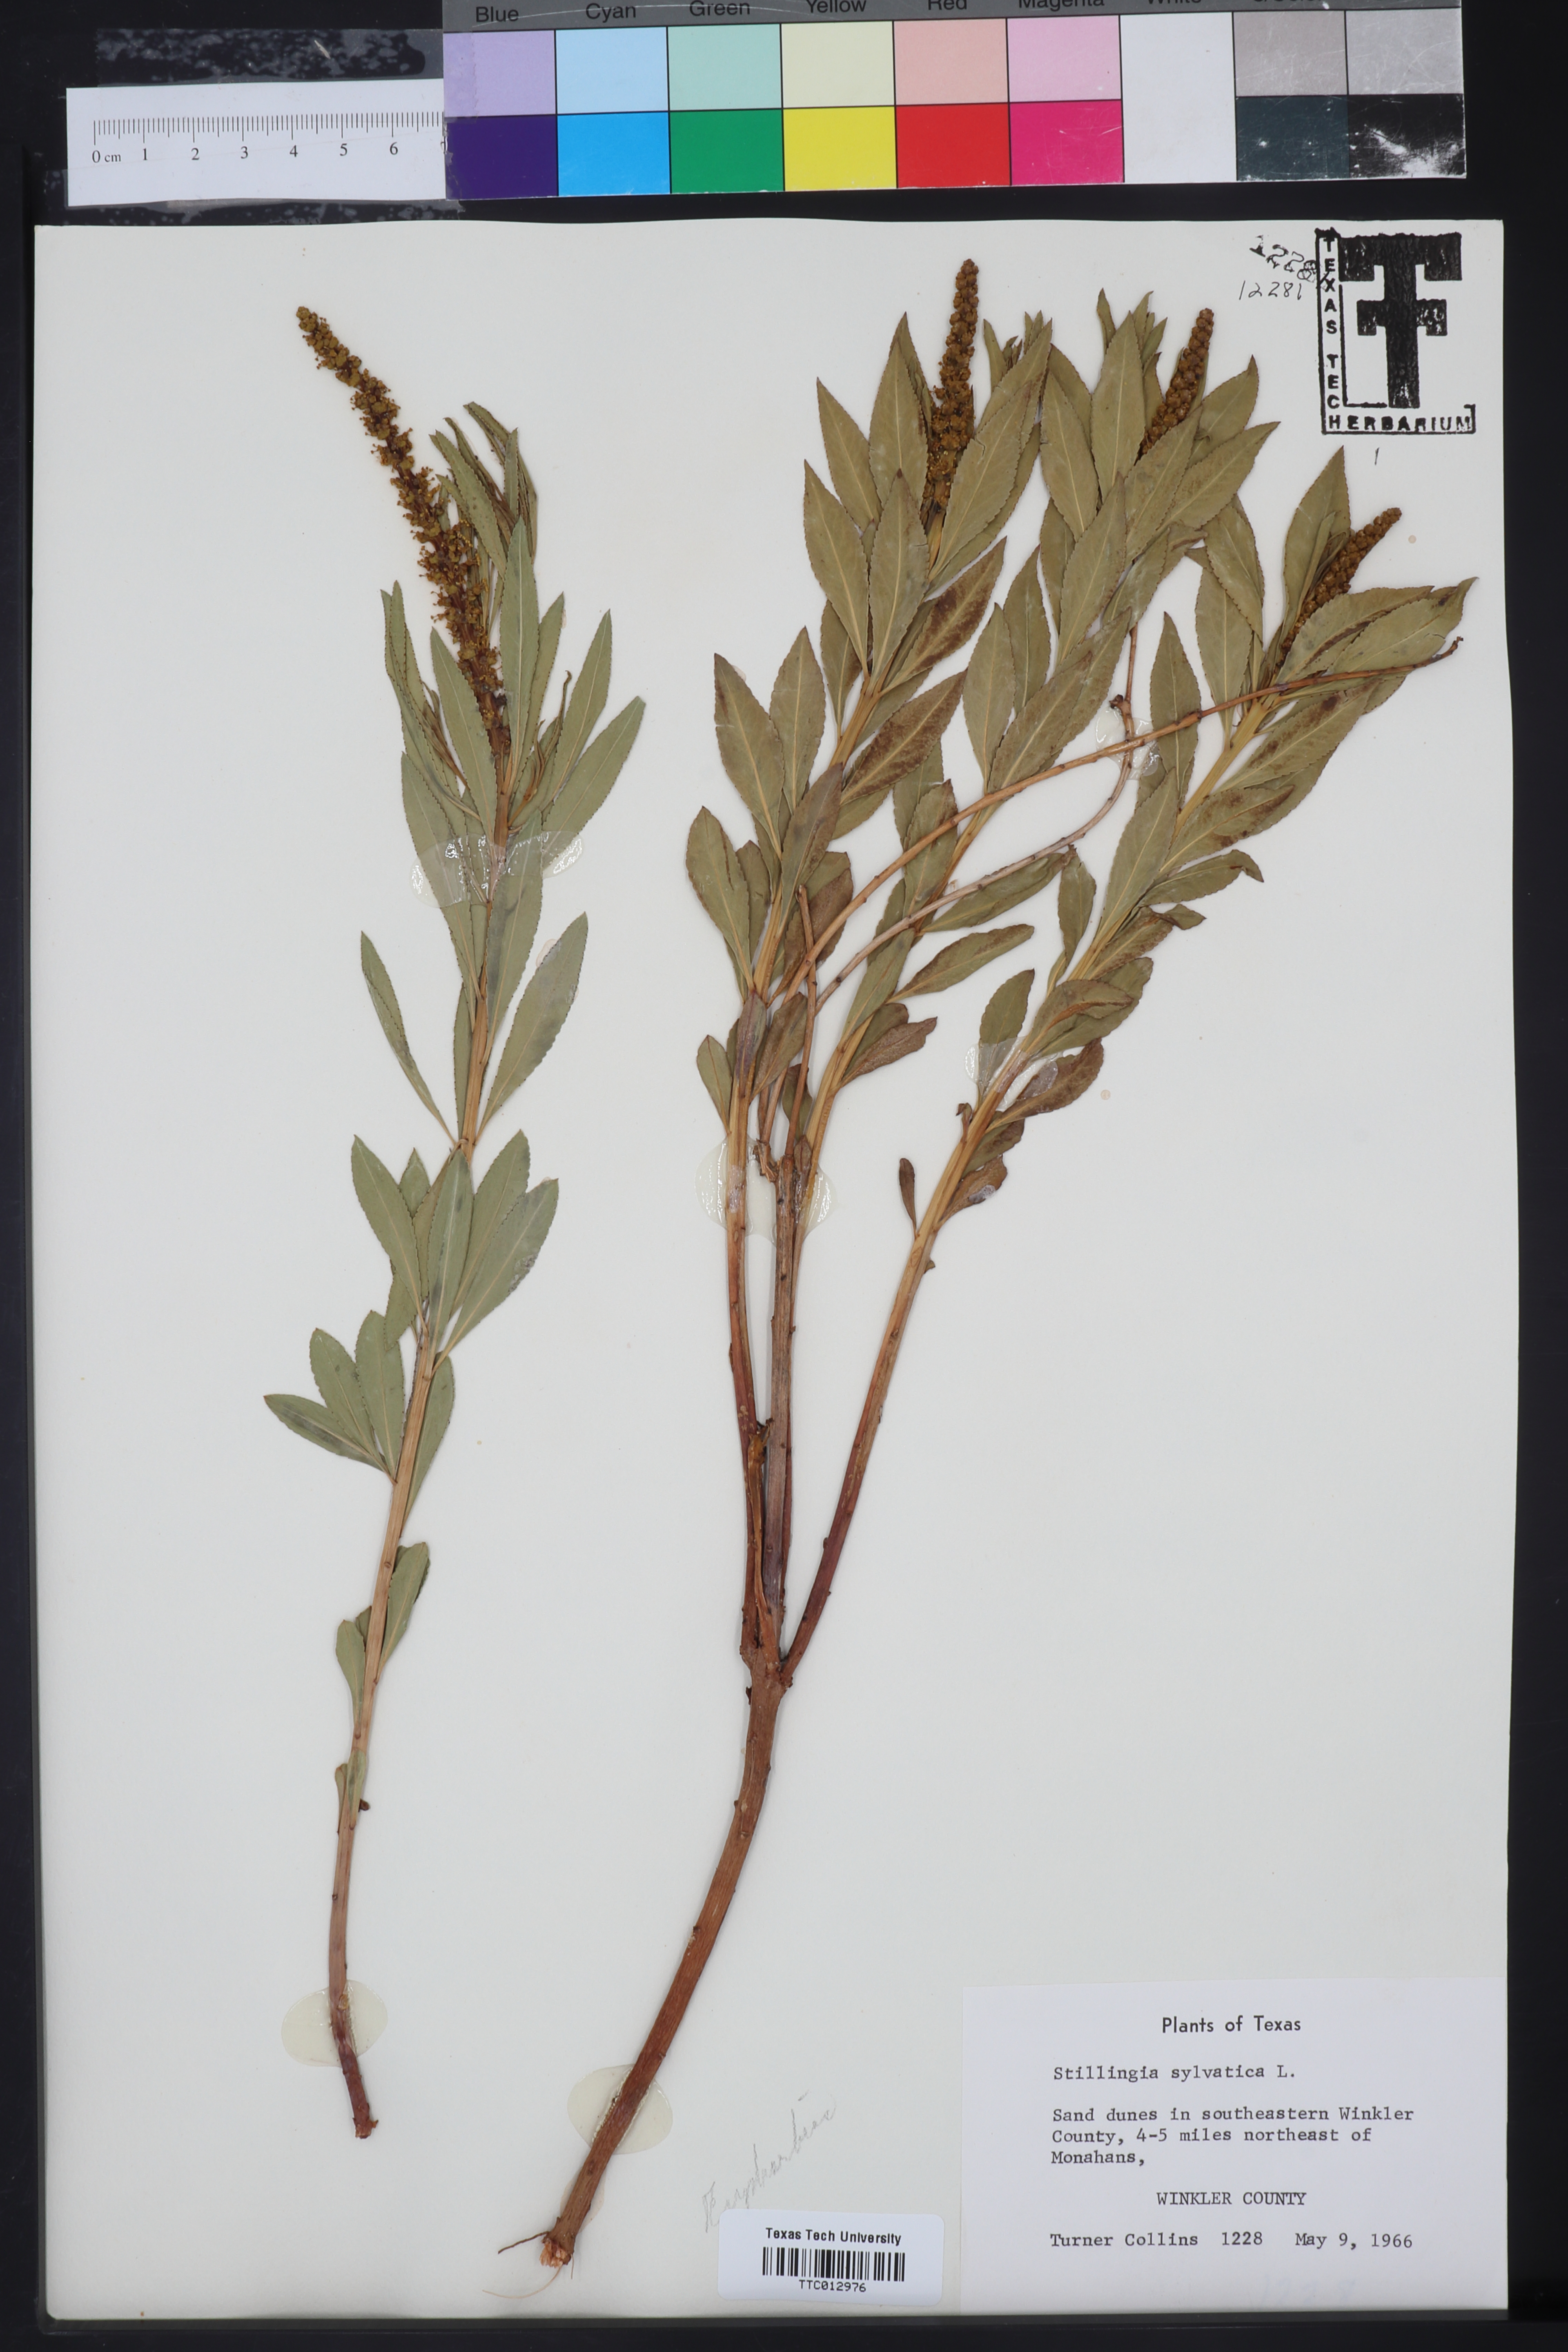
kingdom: Plantae
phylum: Tracheophyta
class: Magnoliopsida
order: Malpighiales
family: Euphorbiaceae
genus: Stillingia
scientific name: Stillingia sylvatica
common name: Queen's-delight
